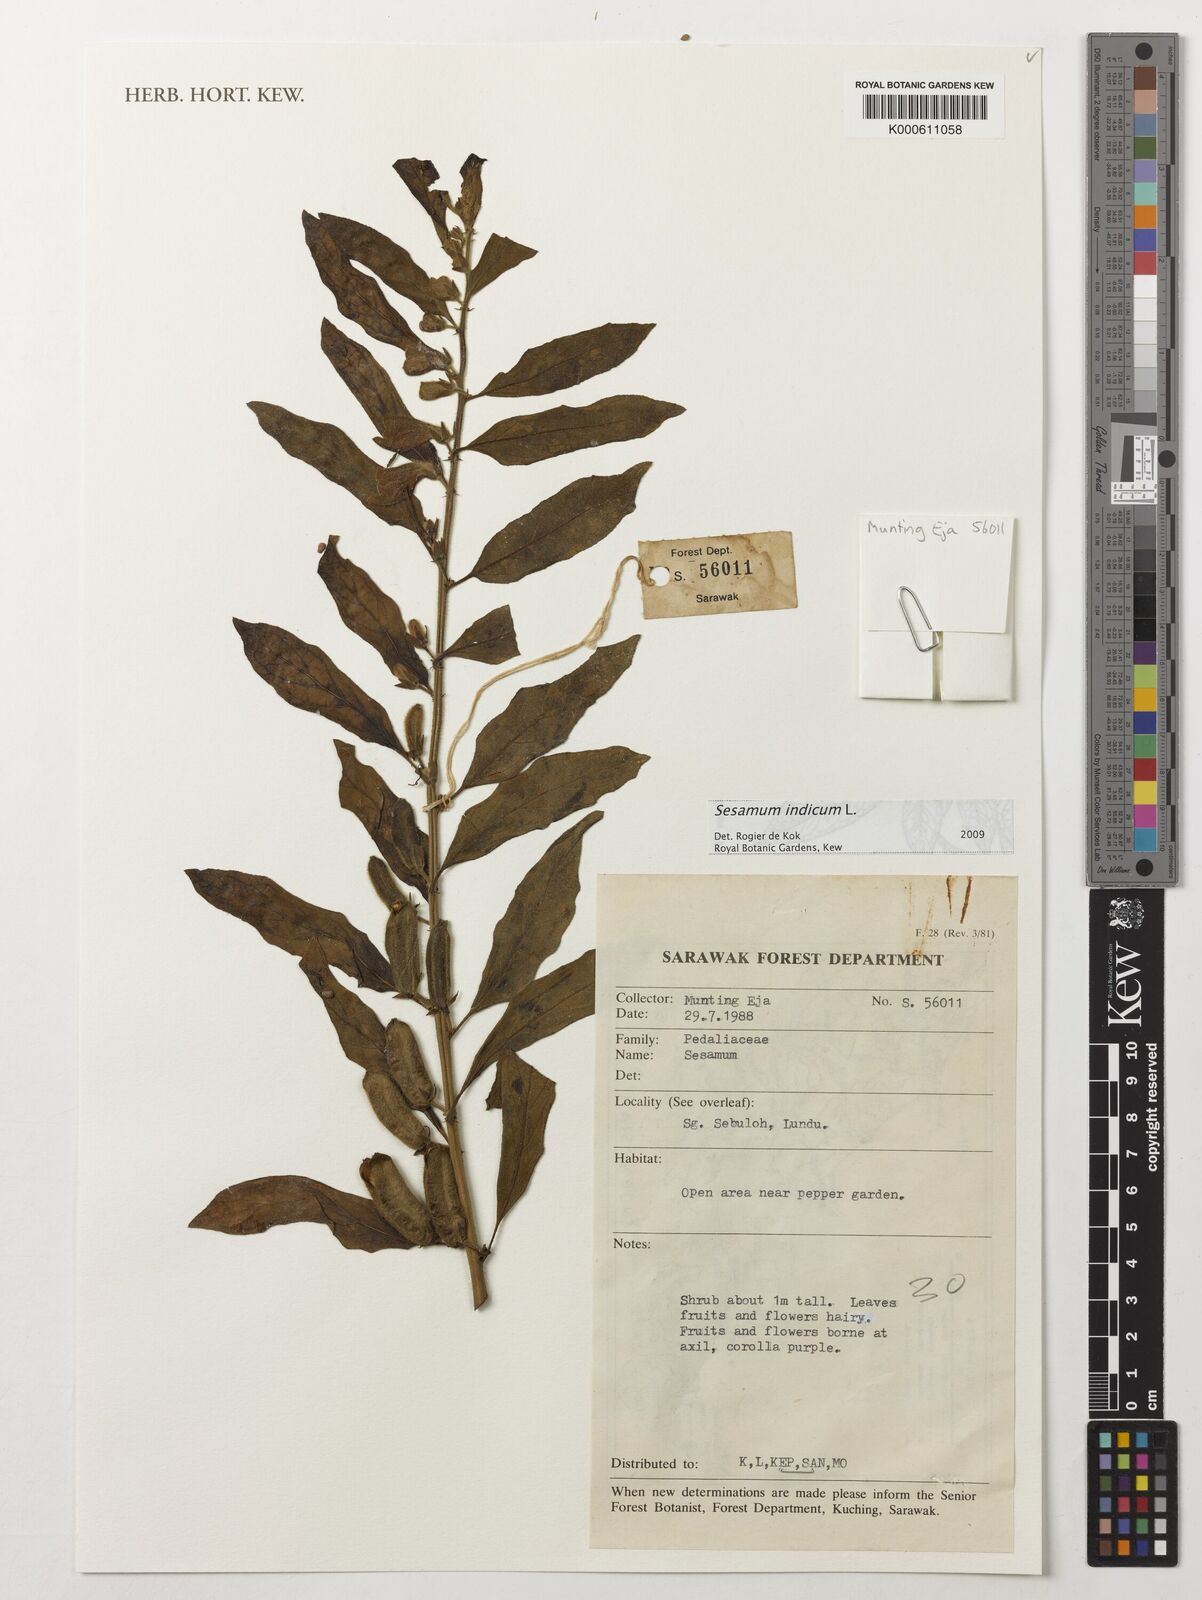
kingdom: Plantae
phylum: Tracheophyta
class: Magnoliopsida
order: Lamiales
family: Pedaliaceae
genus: Sesamum
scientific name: Sesamum indicum
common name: Sesame
